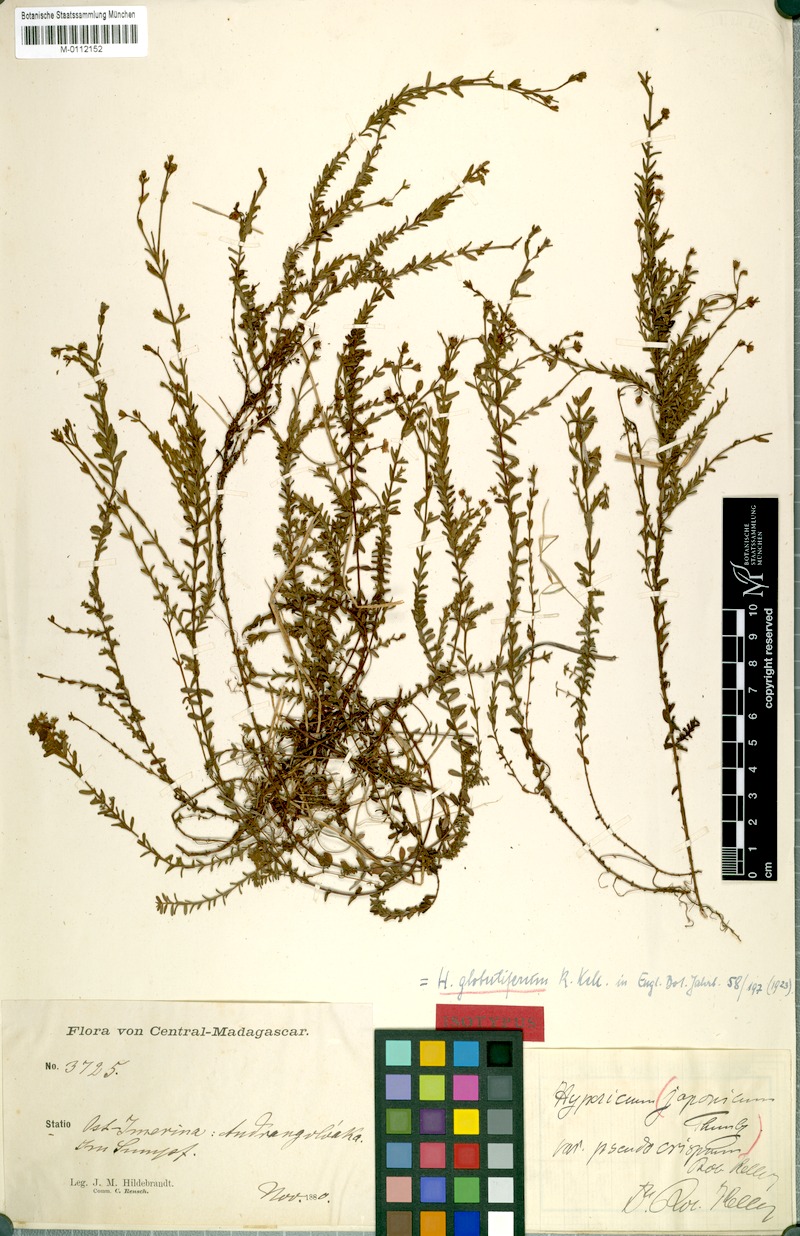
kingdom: Plantae
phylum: Tracheophyta
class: Magnoliopsida
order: Malpighiales
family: Hypericaceae
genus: Hypericum
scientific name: Hypericum globuliferum
